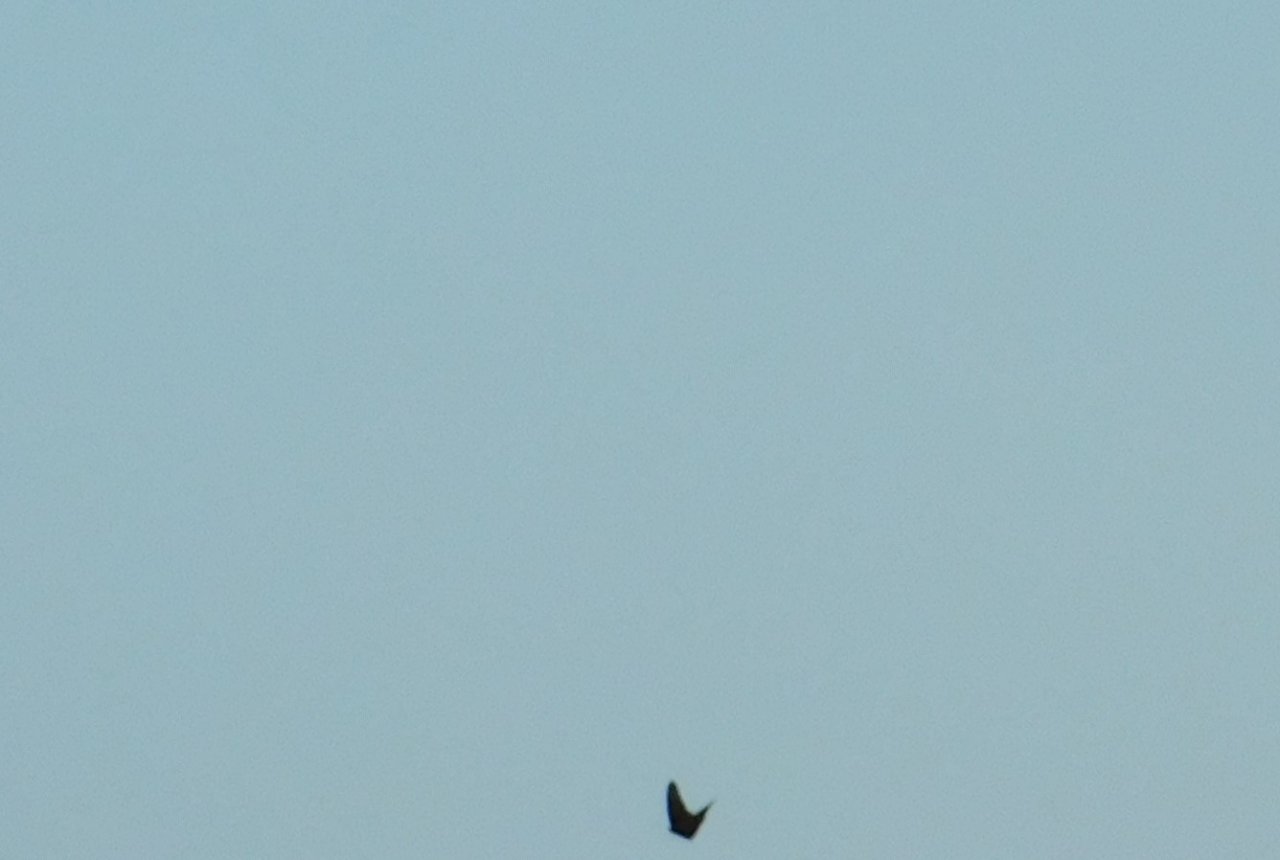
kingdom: Animalia
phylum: Arthropoda
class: Insecta
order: Lepidoptera
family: Nymphalidae
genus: Danaus
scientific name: Danaus plexippus
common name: Monarch
